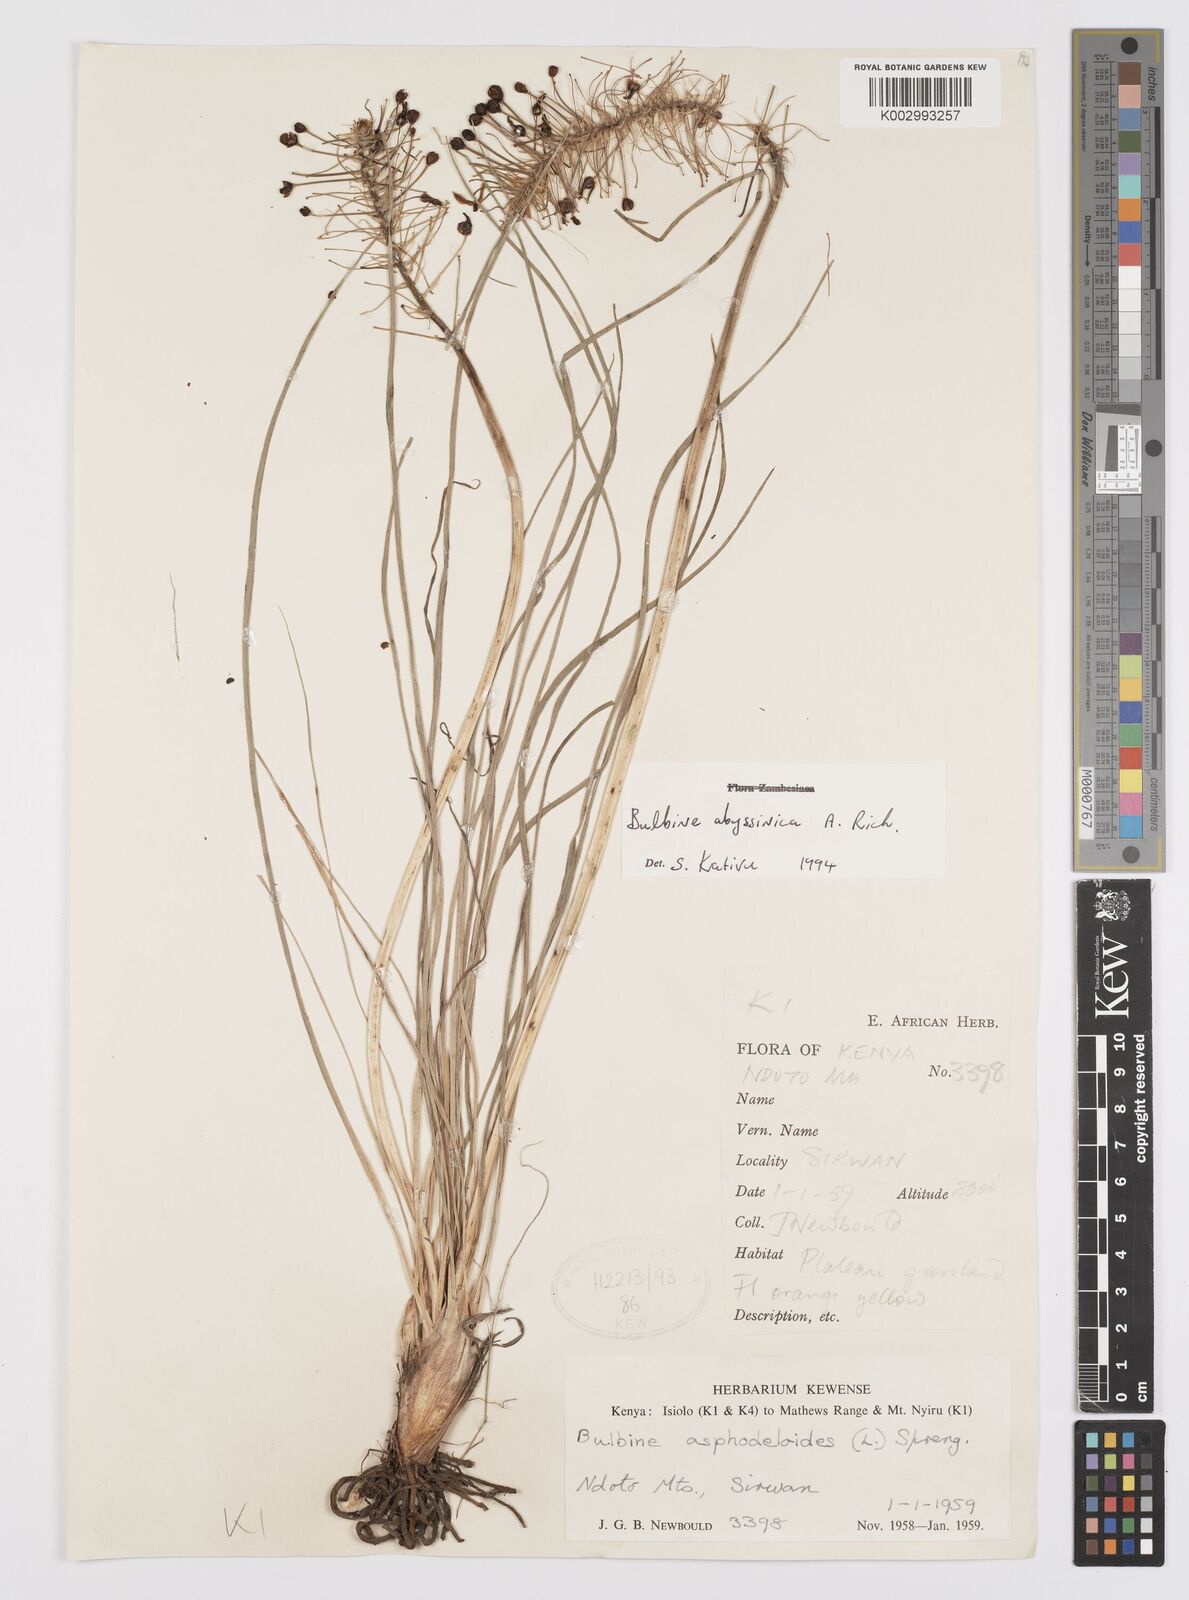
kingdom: Plantae
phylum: Tracheophyta
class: Liliopsida
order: Asparagales
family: Asphodelaceae
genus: Bulbine
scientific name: Bulbine abyssinica
